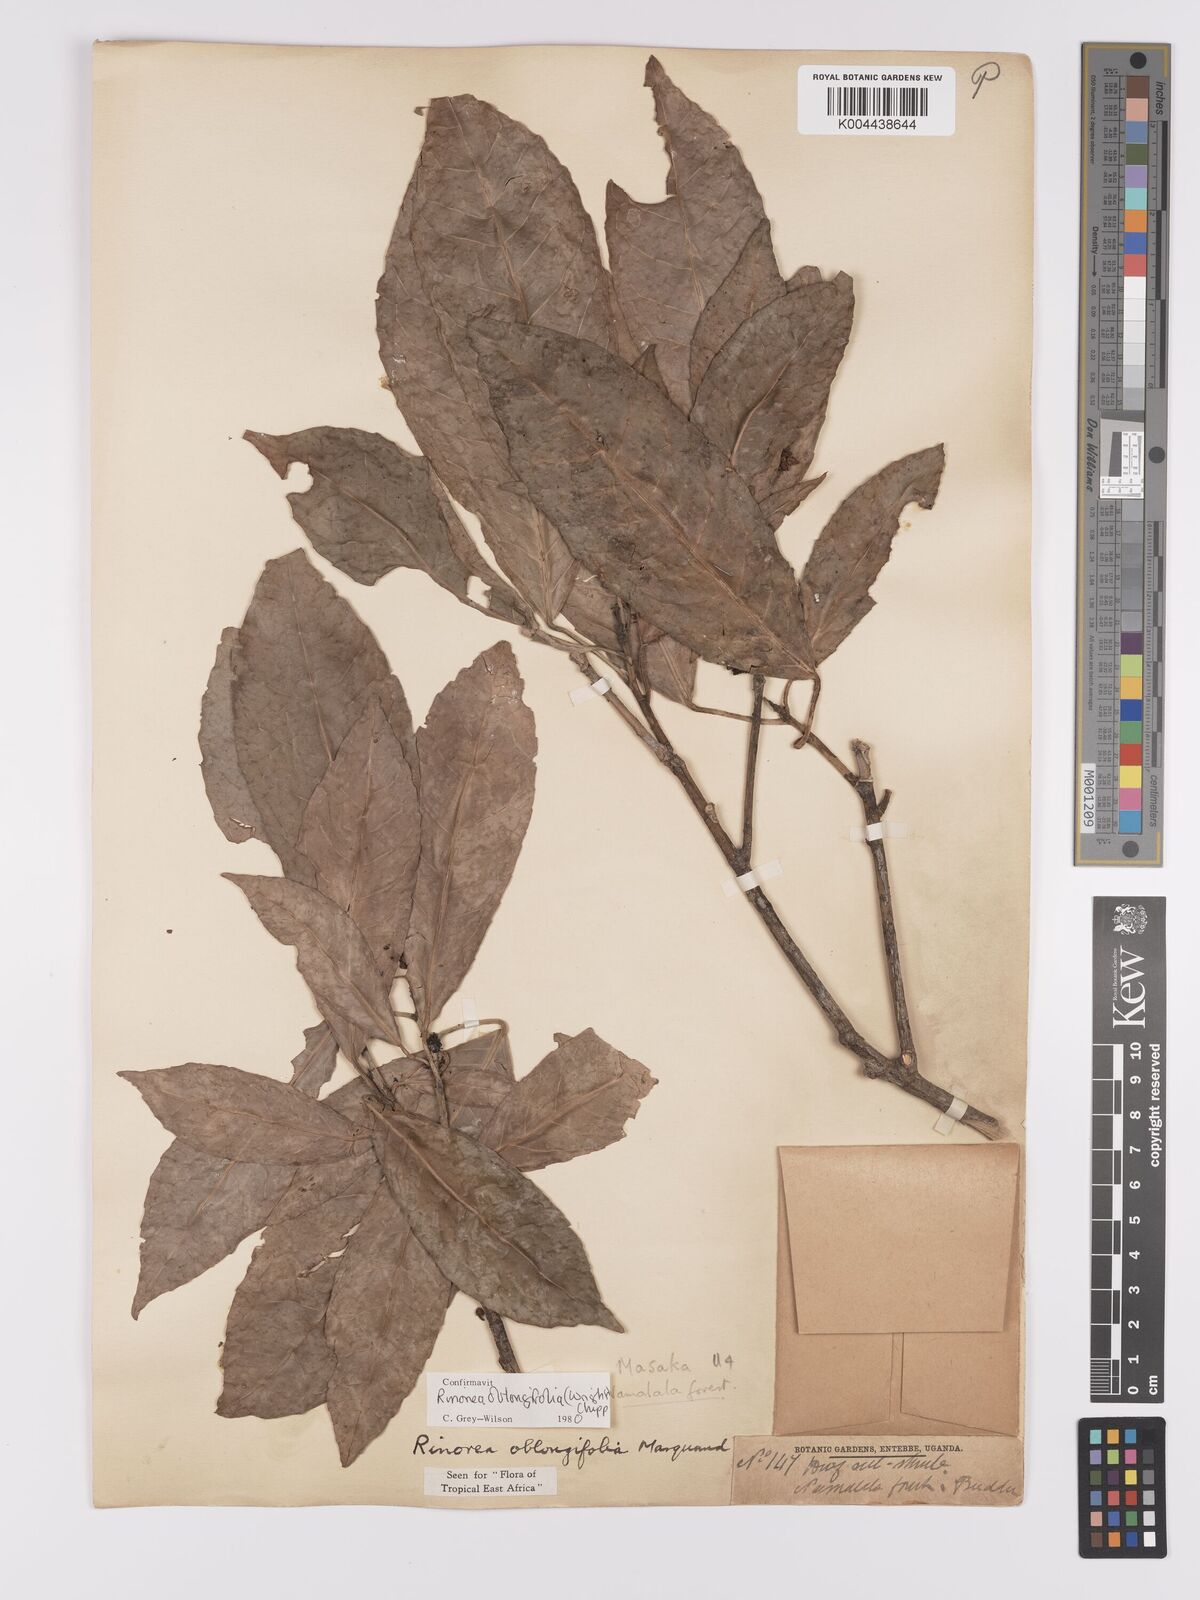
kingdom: Plantae
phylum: Tracheophyta
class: Magnoliopsida
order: Apiales
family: Pittosporaceae
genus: Marianthus
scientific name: Marianthus coeruleopunctatus
